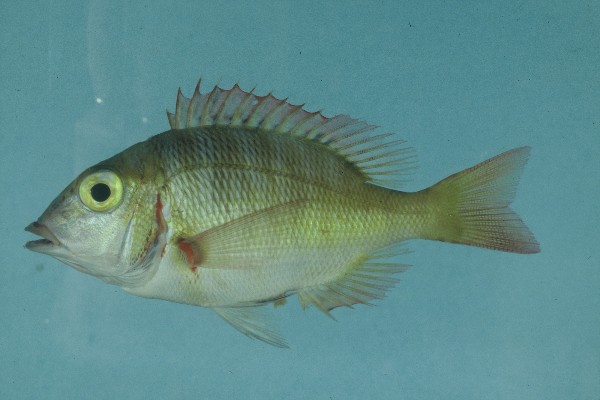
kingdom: Animalia
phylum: Chordata
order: Perciformes
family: Lethrinidae
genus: Lethrinus
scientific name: Lethrinus mahsena
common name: Sky emperor
